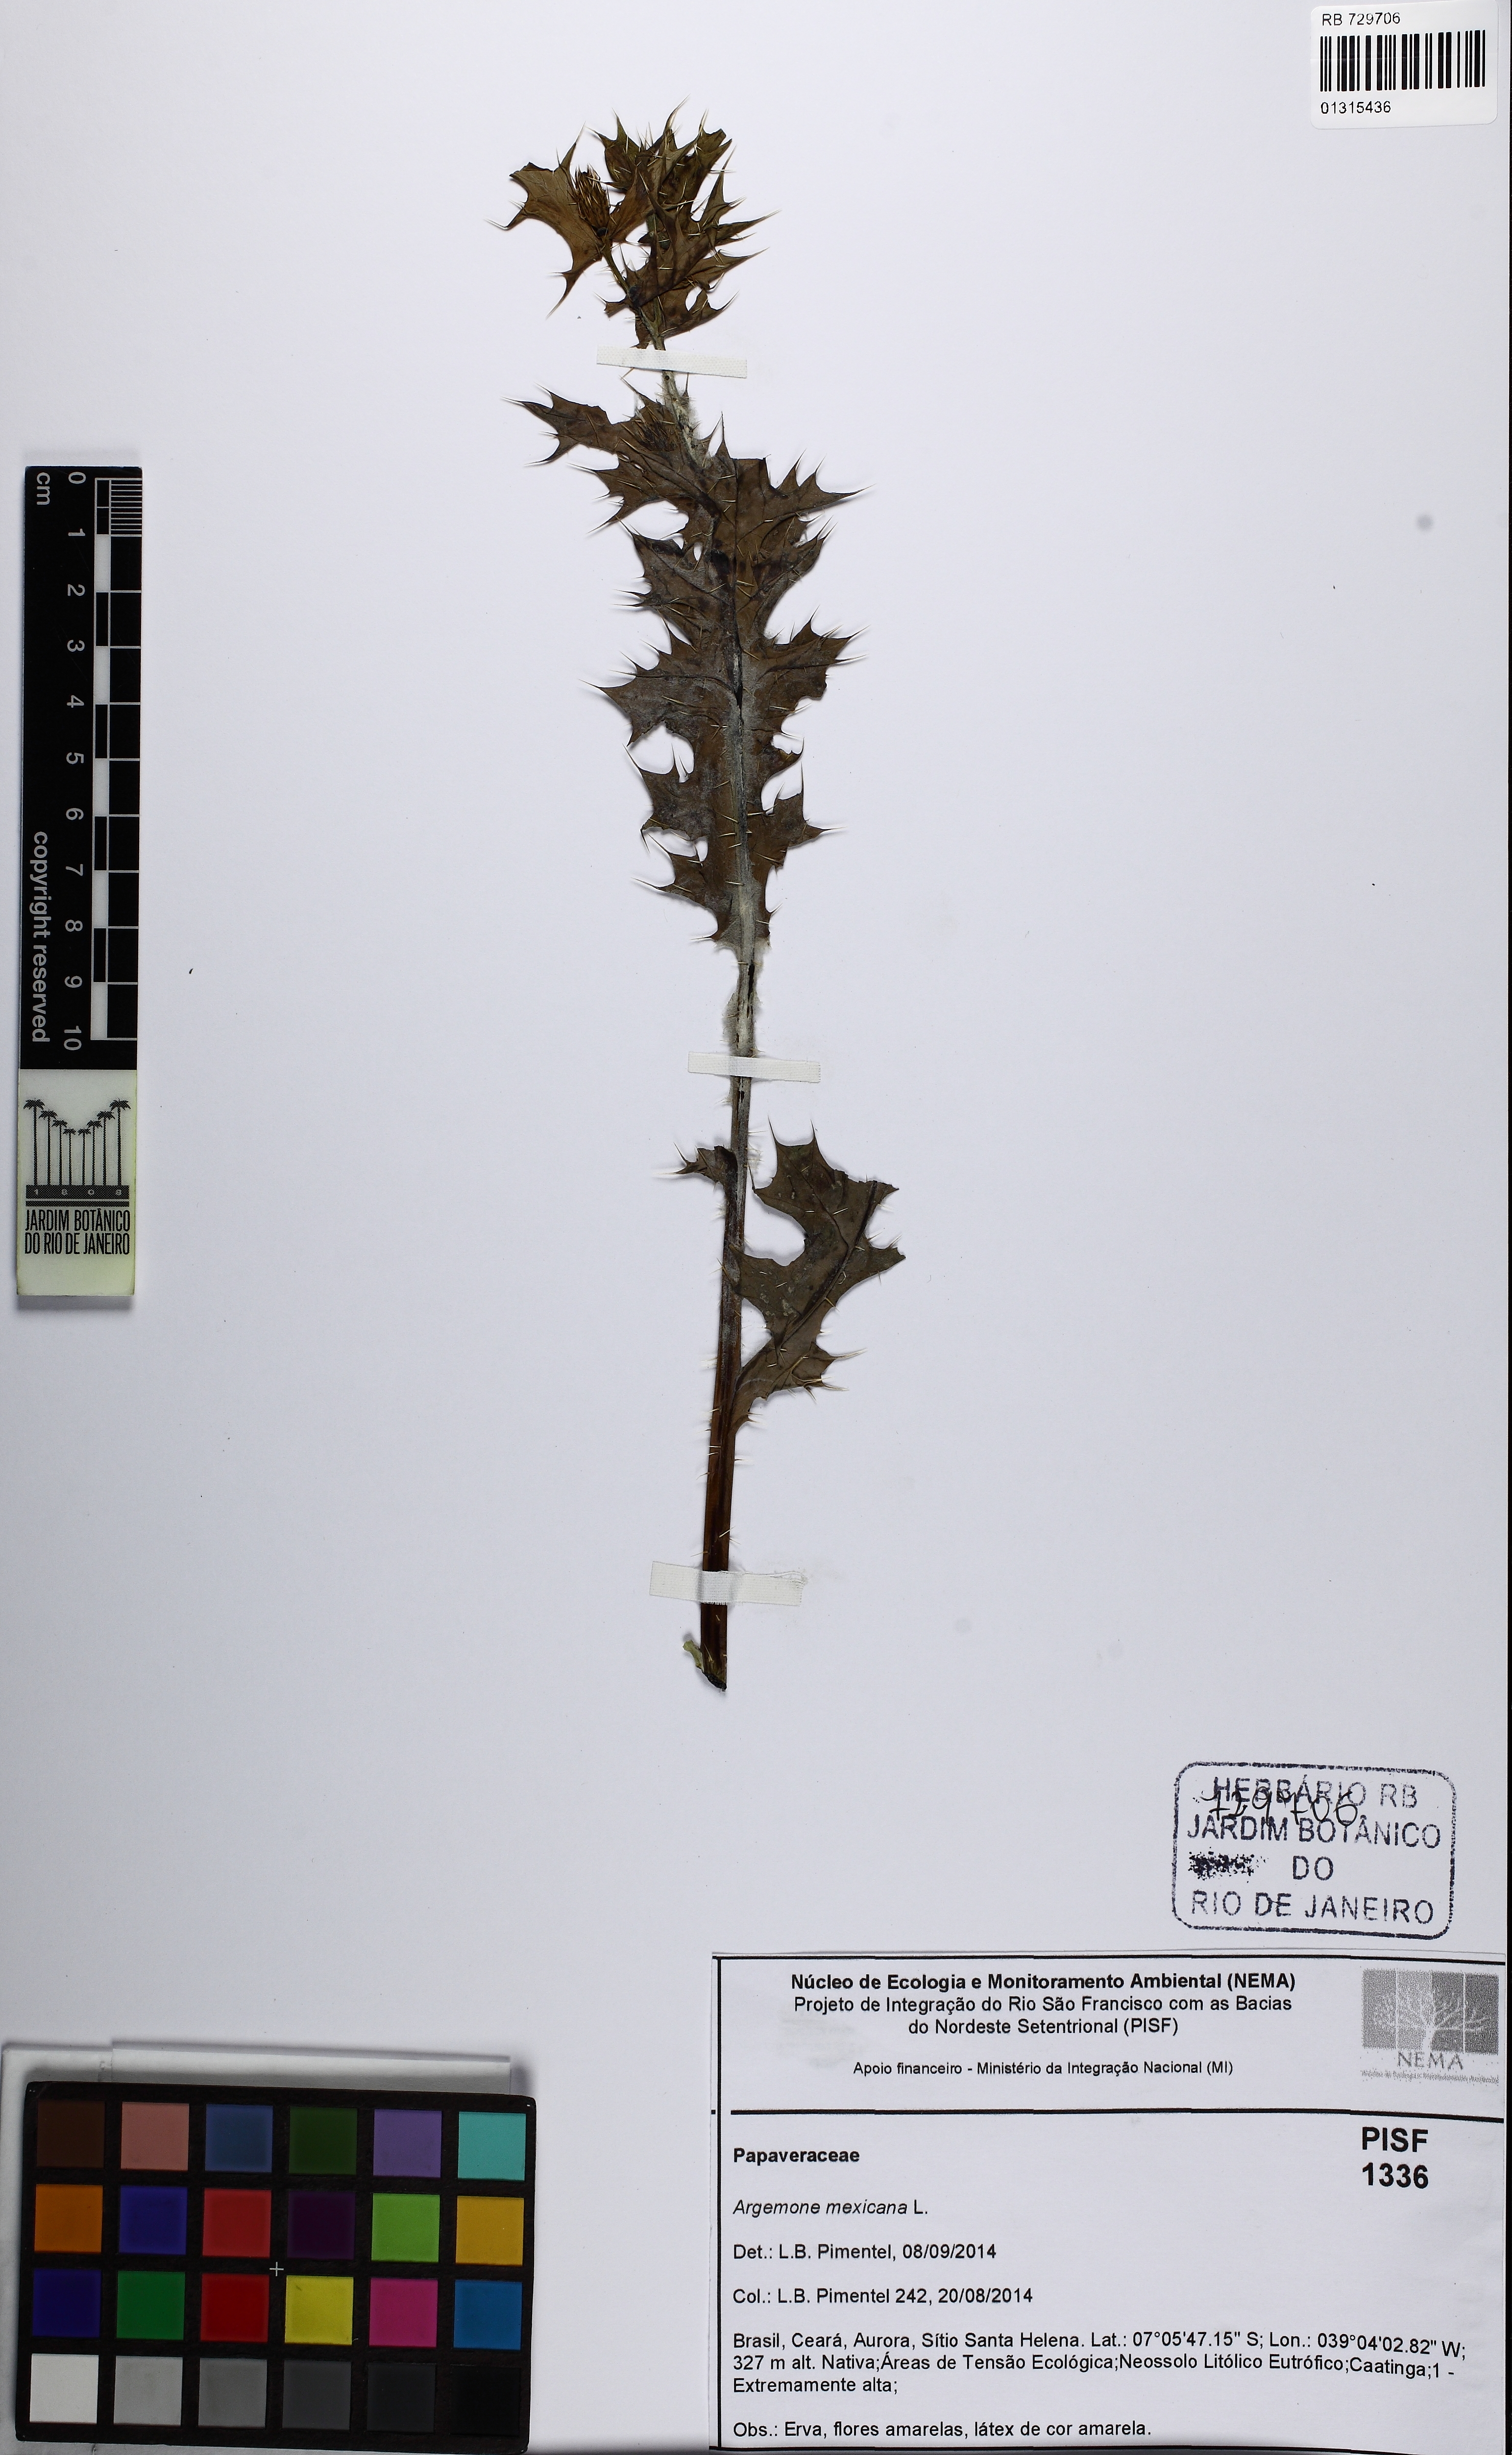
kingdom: Plantae
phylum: Tracheophyta
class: Magnoliopsida
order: Ranunculales
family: Papaveraceae
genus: Argemone
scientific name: Argemone mexicana
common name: Mexican poppy
